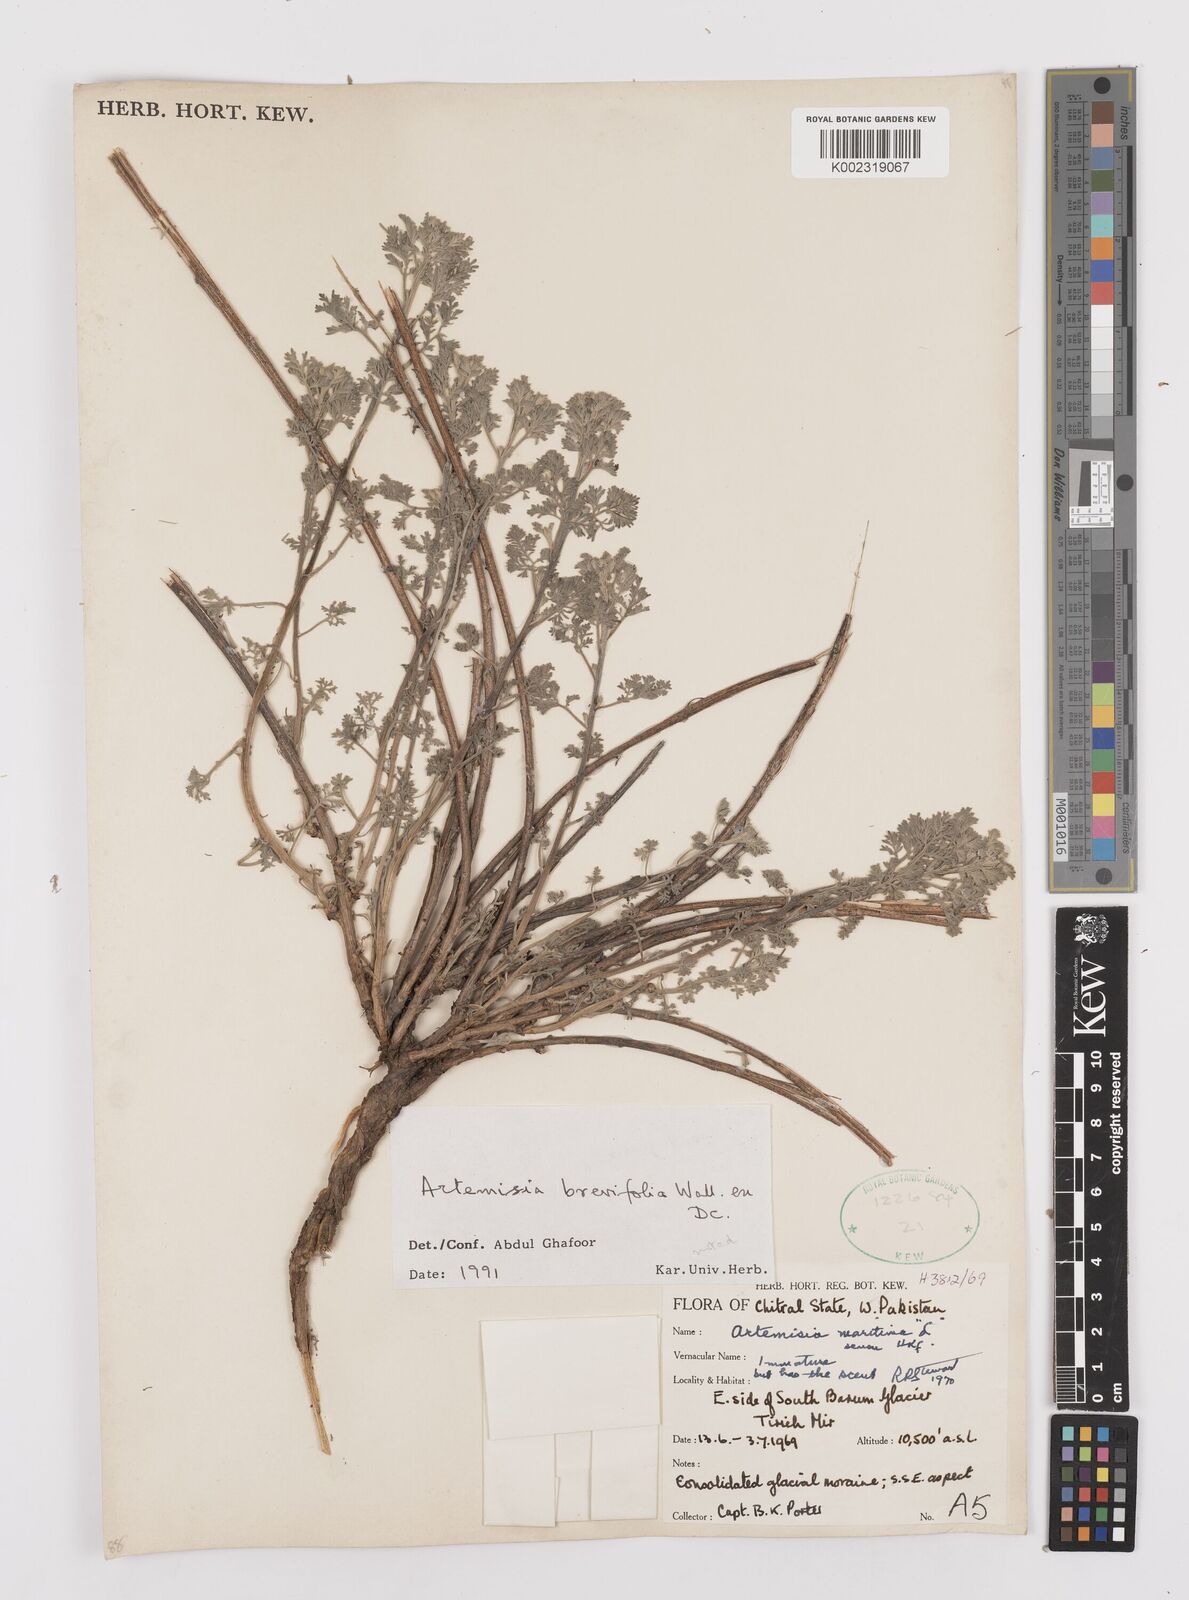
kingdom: Plantae
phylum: Tracheophyta
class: Magnoliopsida
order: Asterales
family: Asteraceae
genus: Artemisia
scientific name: Artemisia brevifolia
